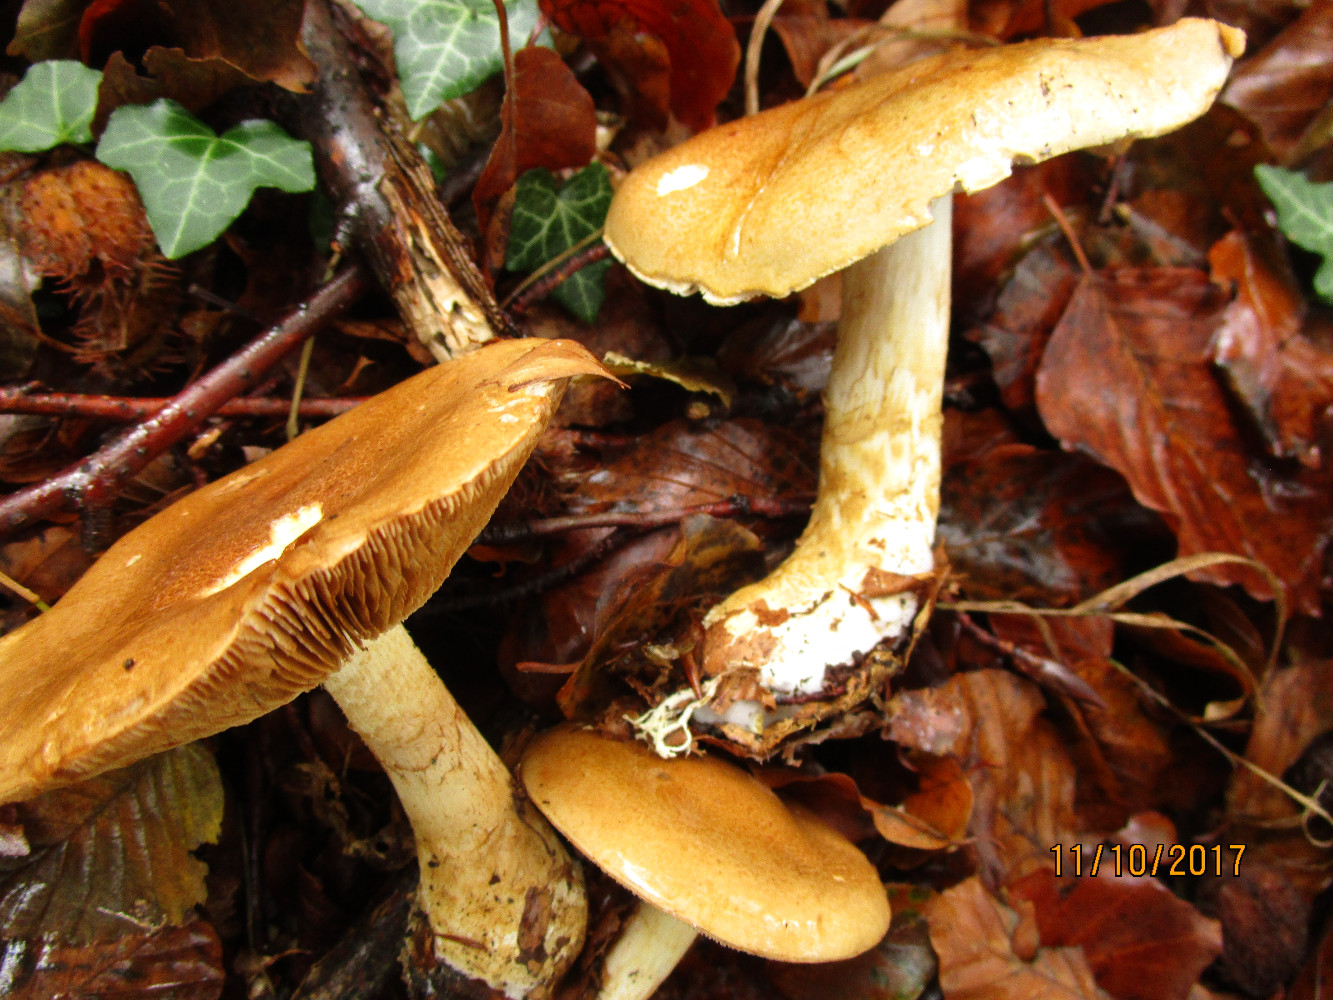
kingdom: Fungi
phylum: Basidiomycota
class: Agaricomycetes
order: Agaricales
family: Cortinariaceae
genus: Phlegmacium
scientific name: Phlegmacium cliduchus
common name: majs-slørhat
